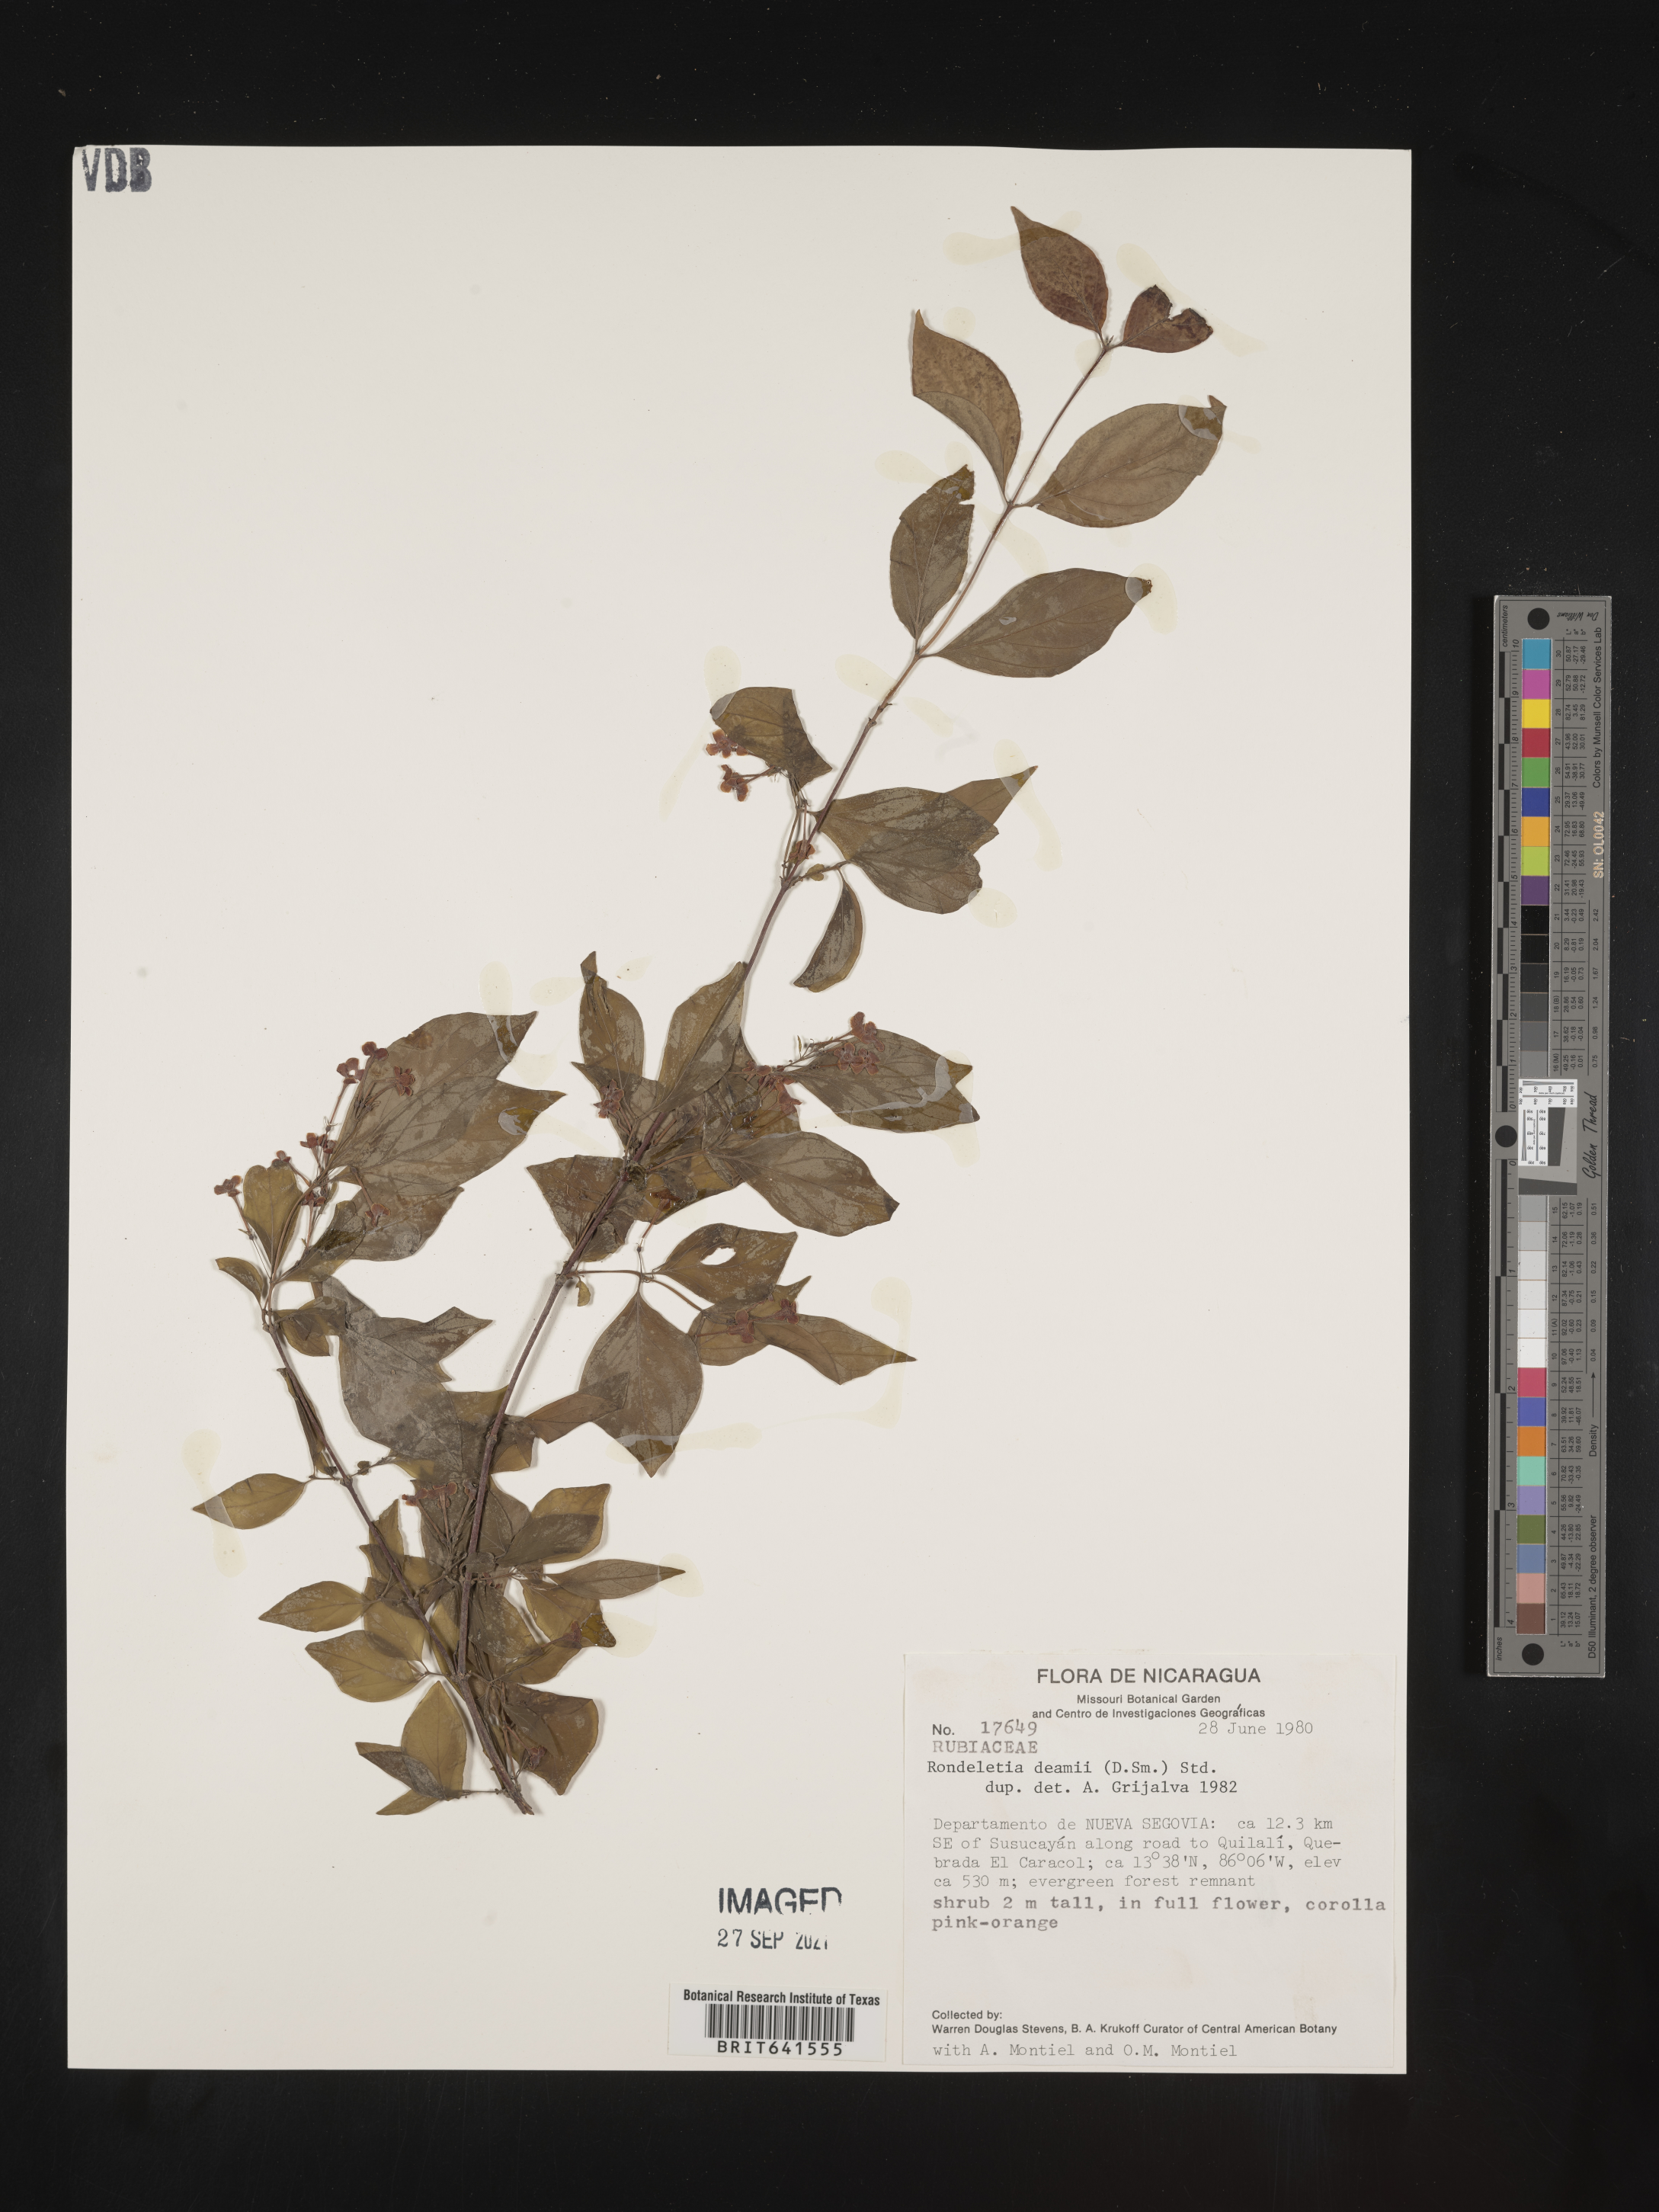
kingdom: Plantae
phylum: Tracheophyta
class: Magnoliopsida
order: Gentianales
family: Rubiaceae
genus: Rondeletia
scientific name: Rondeletia
